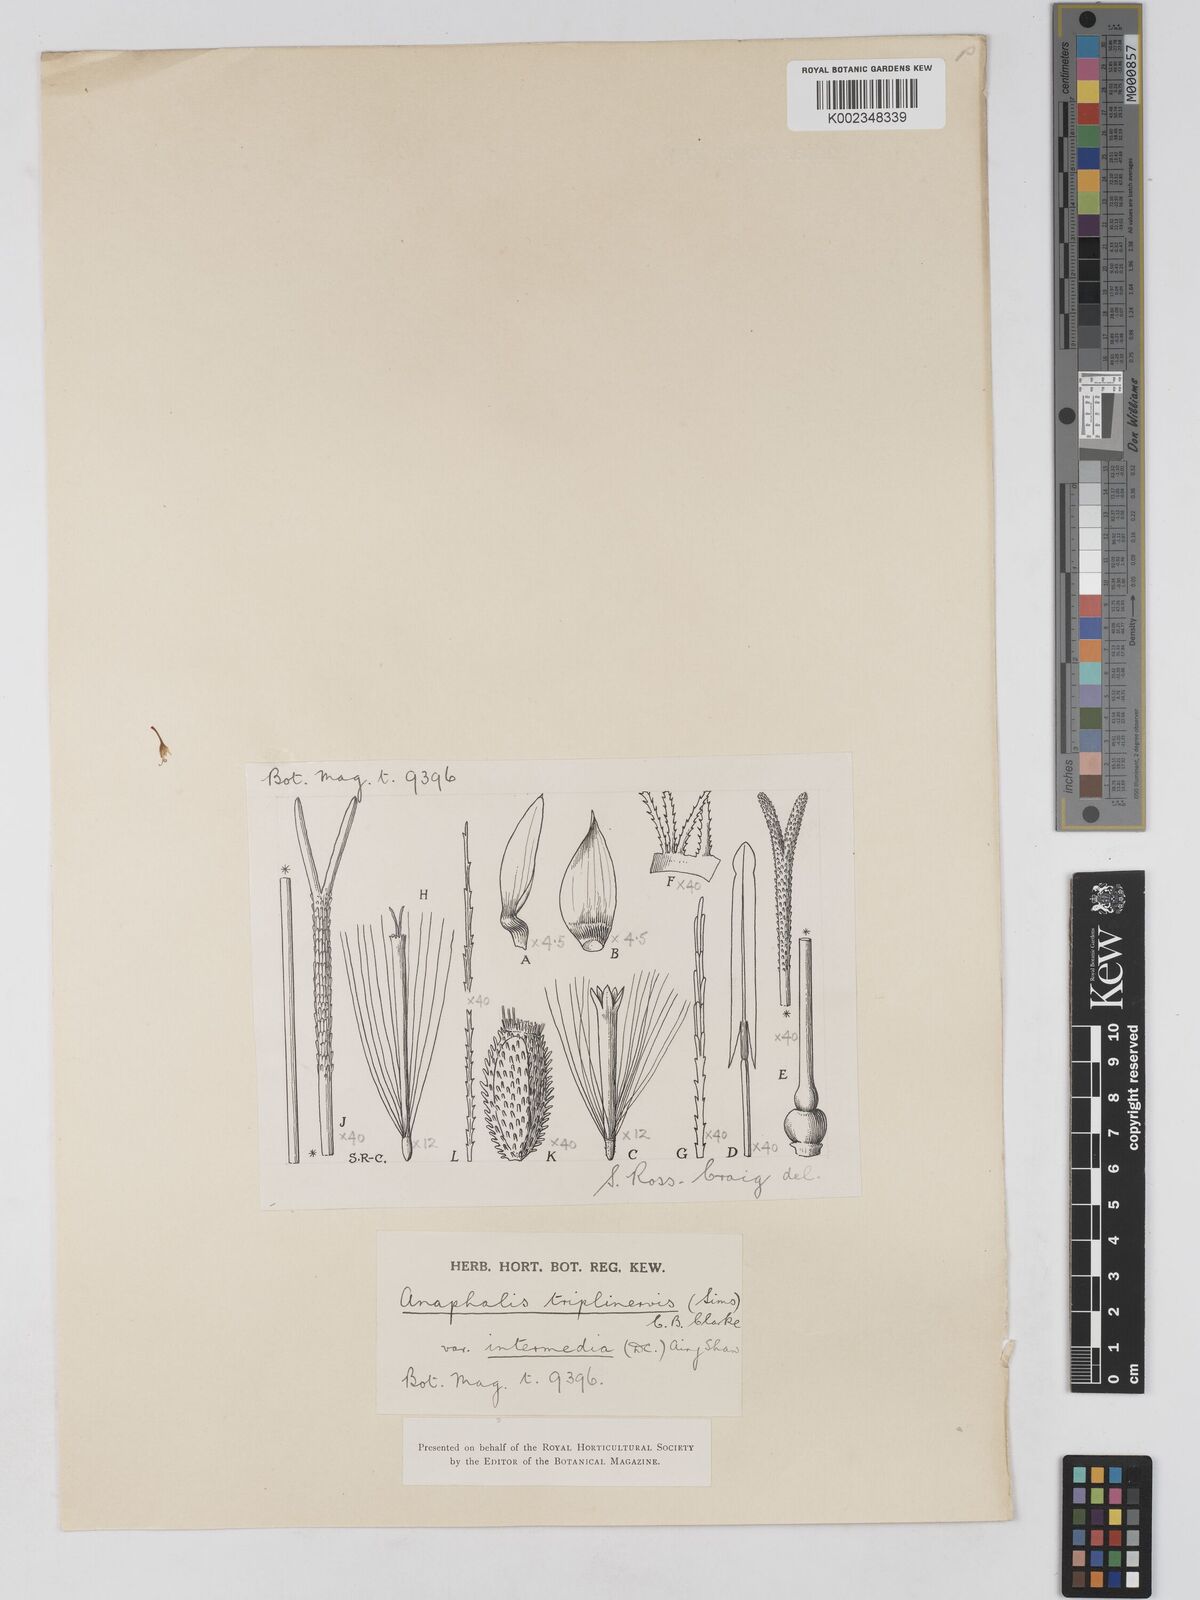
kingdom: Plantae
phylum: Tracheophyta
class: Magnoliopsida
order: Asterales
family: Asteraceae
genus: Anaphalis
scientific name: Anaphalis nepalensis
